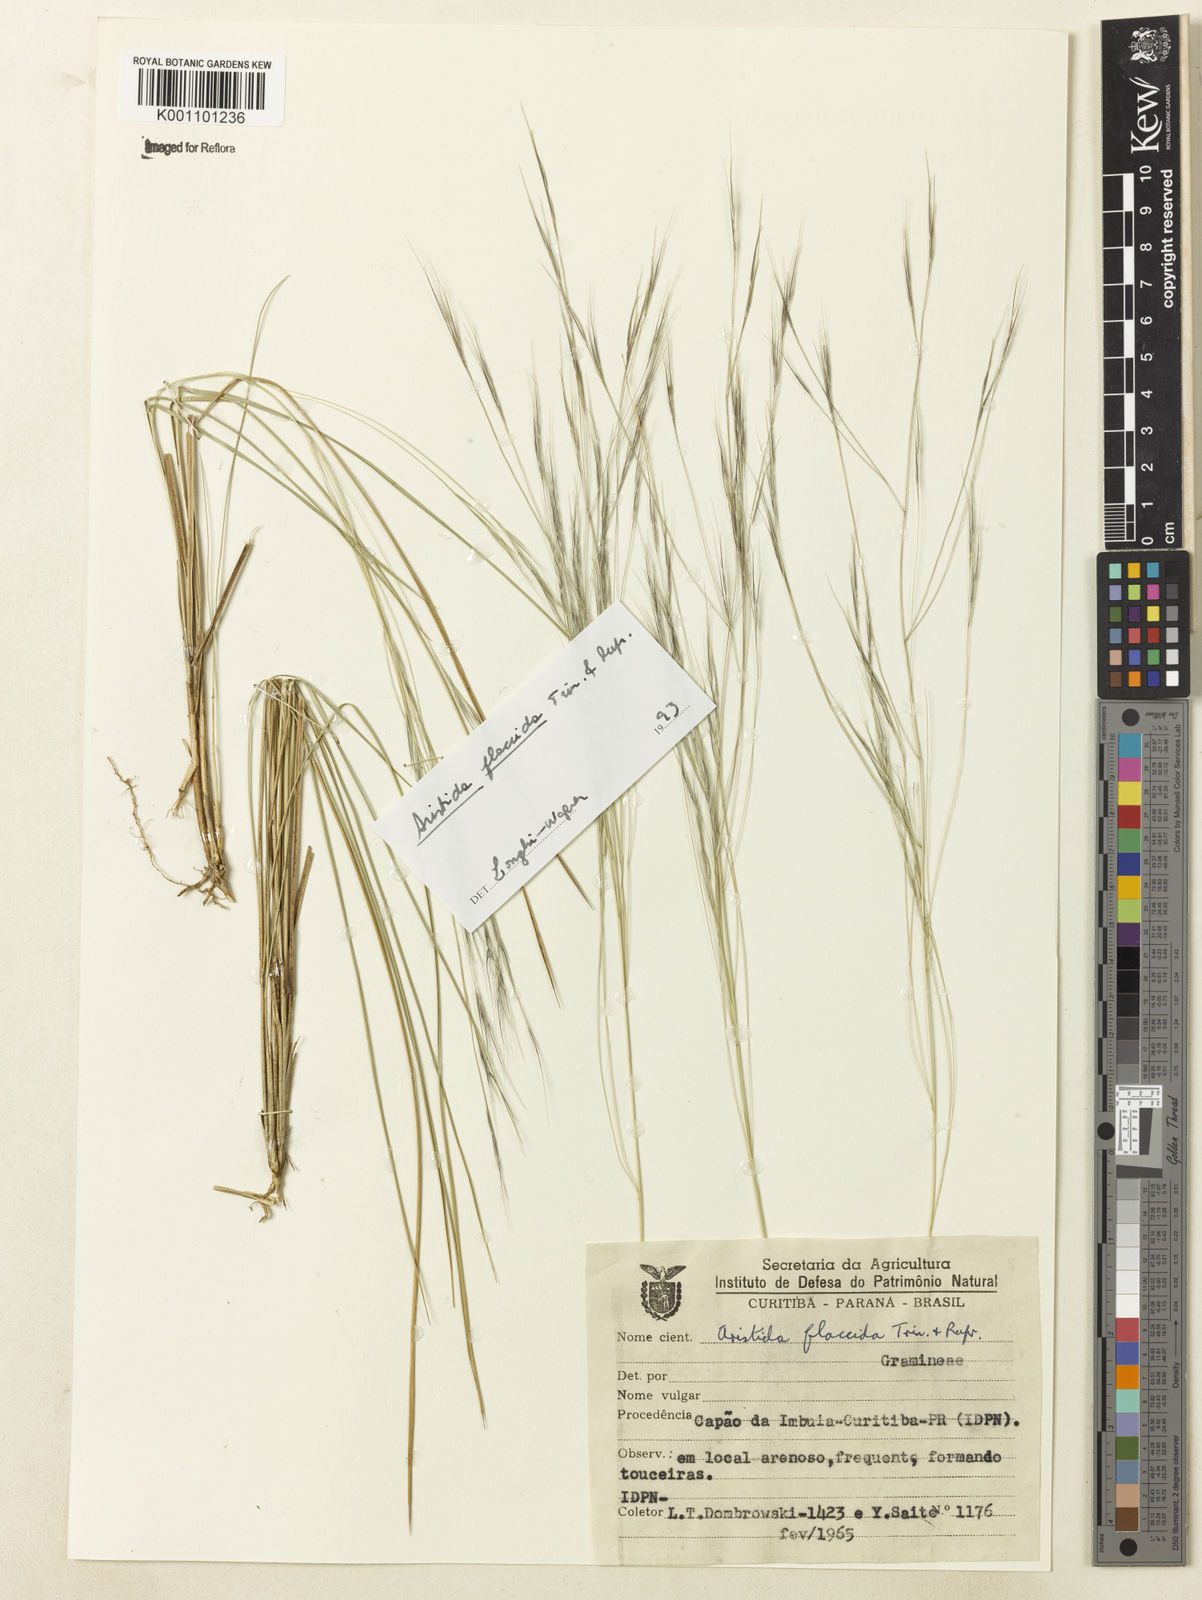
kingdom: Plantae
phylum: Tracheophyta
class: Liliopsida
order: Poales
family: Poaceae
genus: Aristida
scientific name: Aristida flaccida
